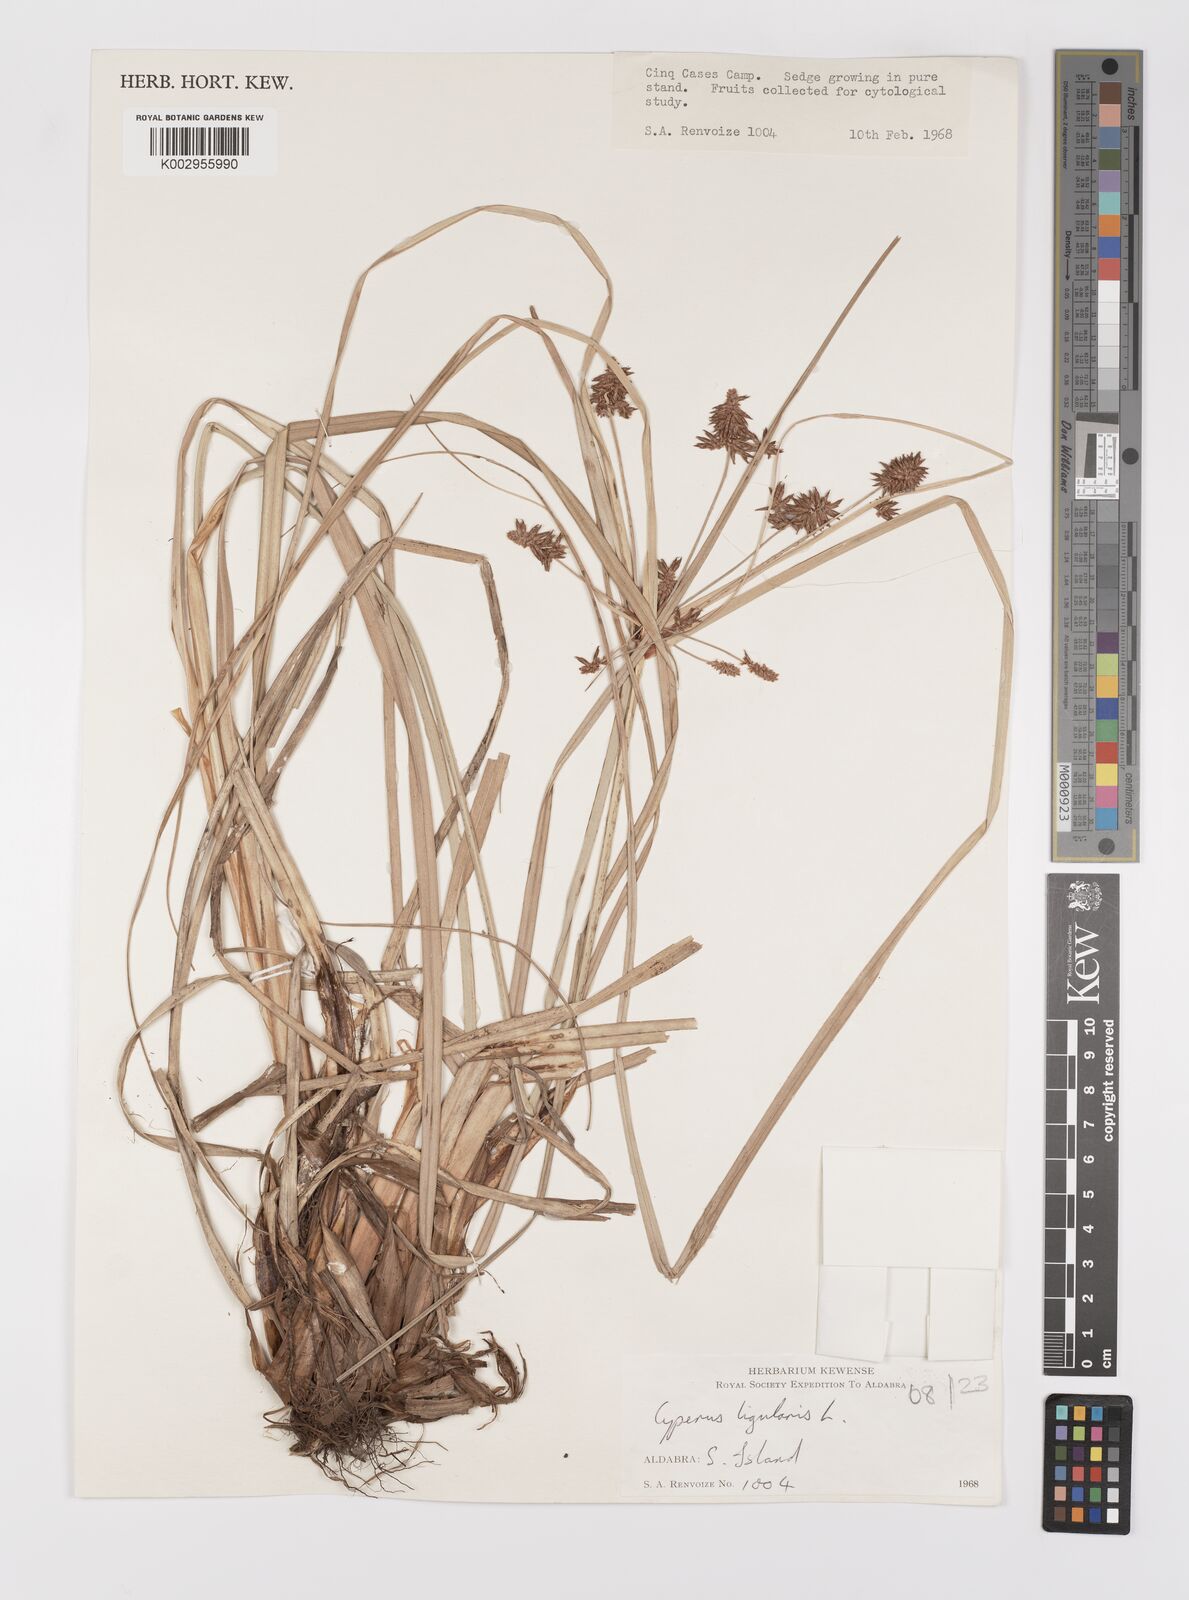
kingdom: Plantae
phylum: Tracheophyta
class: Liliopsida
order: Poales
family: Cyperaceae
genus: Cyperus
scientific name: Cyperus ligularis
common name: Swamp flat sedge
